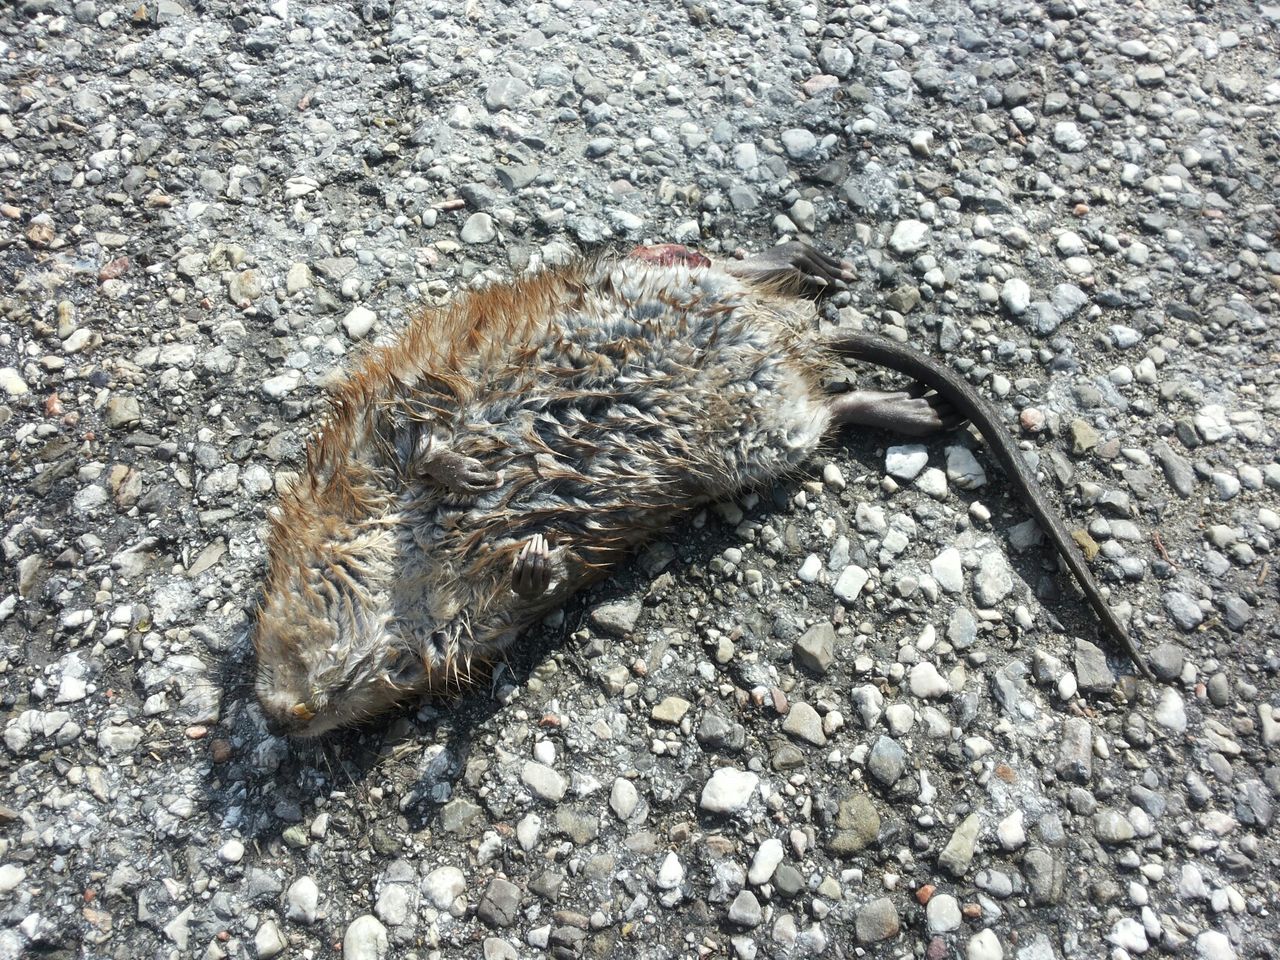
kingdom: Animalia
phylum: Chordata
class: Mammalia
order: Rodentia
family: Cricetidae
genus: Ondatra
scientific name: Ondatra zibethicus
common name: Muskrat
